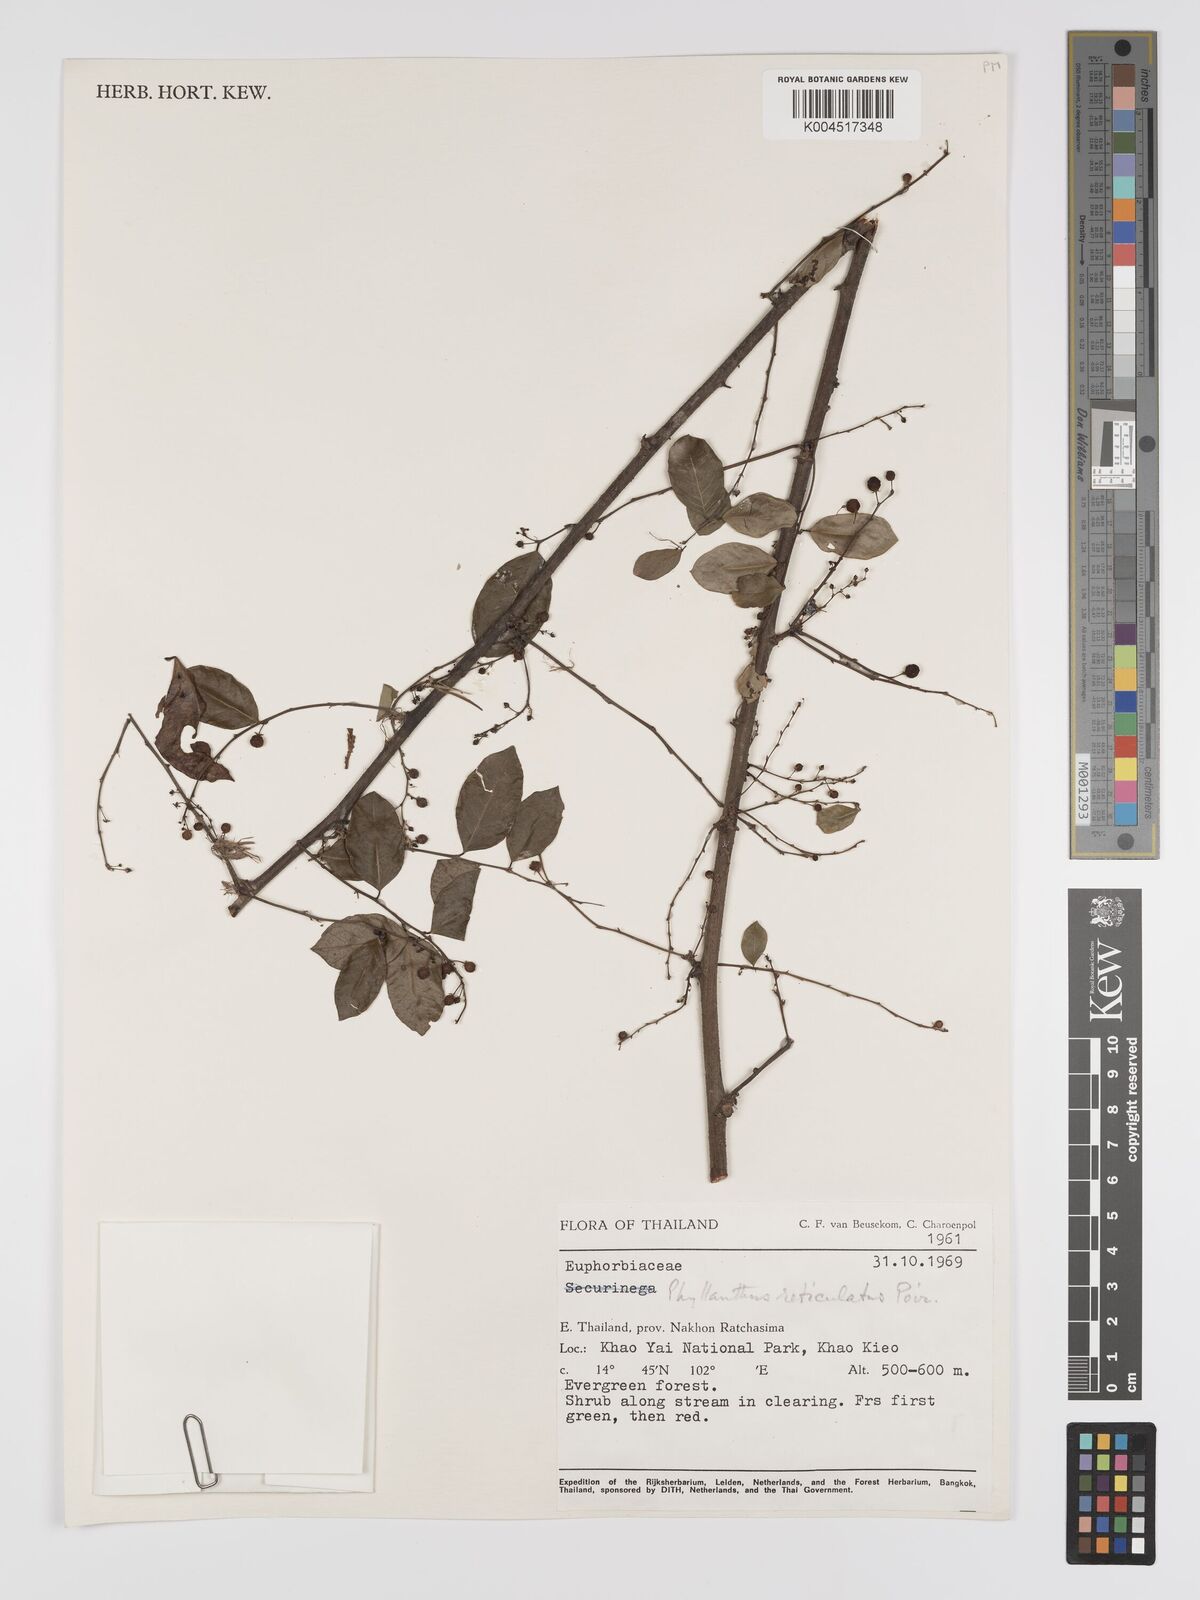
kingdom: Plantae
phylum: Tracheophyta
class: Magnoliopsida
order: Malpighiales
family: Phyllanthaceae
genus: Phyllanthus
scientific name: Phyllanthus reticulatus
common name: Potato bush
